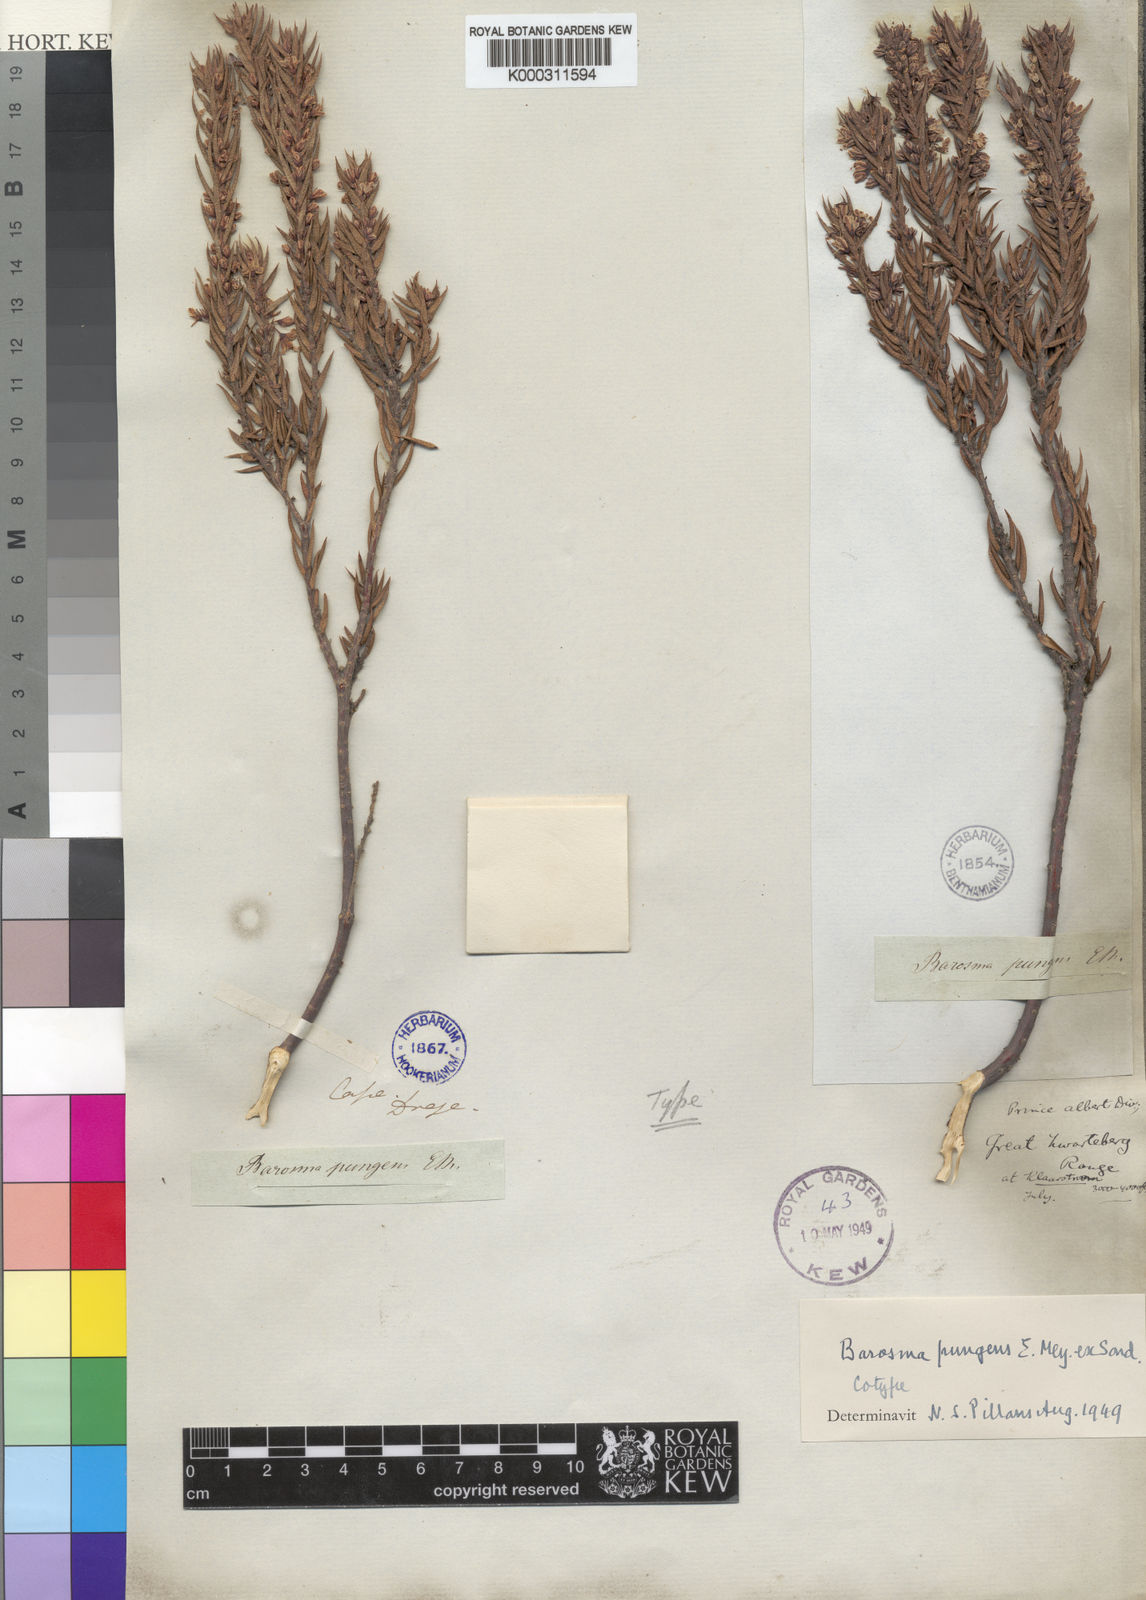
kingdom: Plantae
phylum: Tracheophyta
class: Magnoliopsida
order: Sapindales
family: Rutaceae
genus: Agathosma
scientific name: Agathosma pungens
